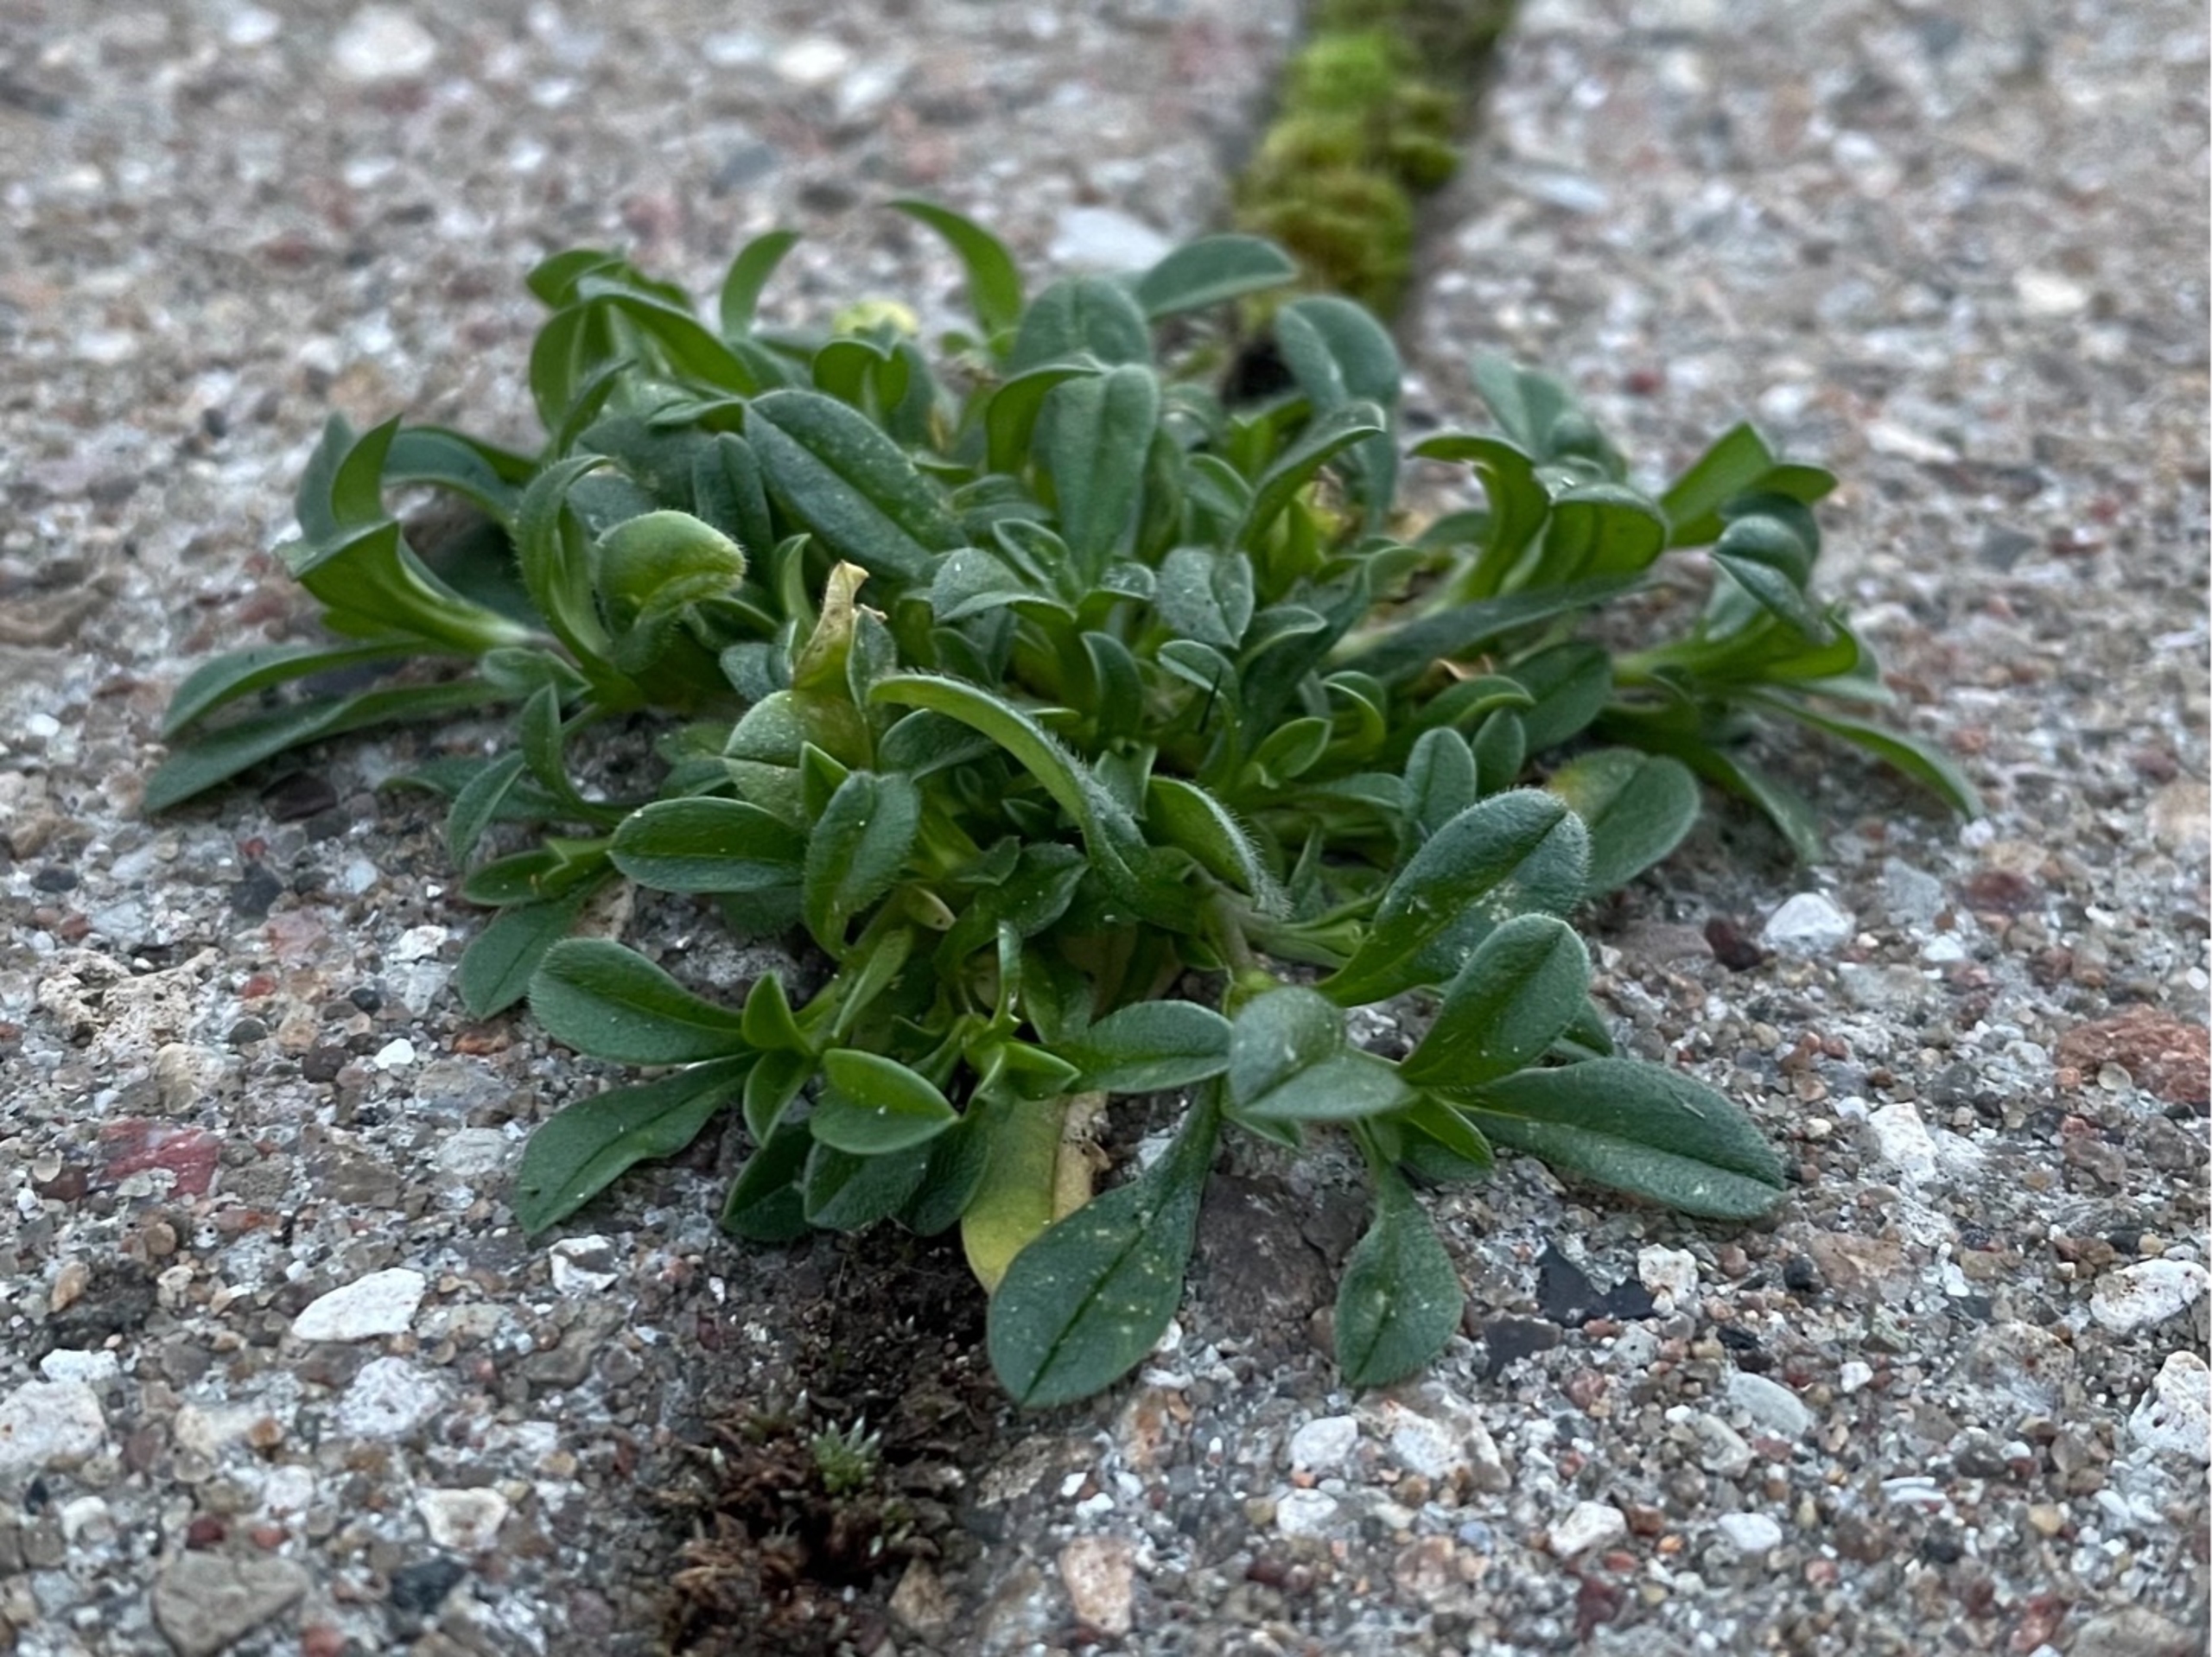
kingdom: Plantae
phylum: Tracheophyta
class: Magnoliopsida
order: Caryophyllales
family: Caryophyllaceae
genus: Cerastium
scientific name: Cerastium fontanum
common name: Almindelig hønsetarm
